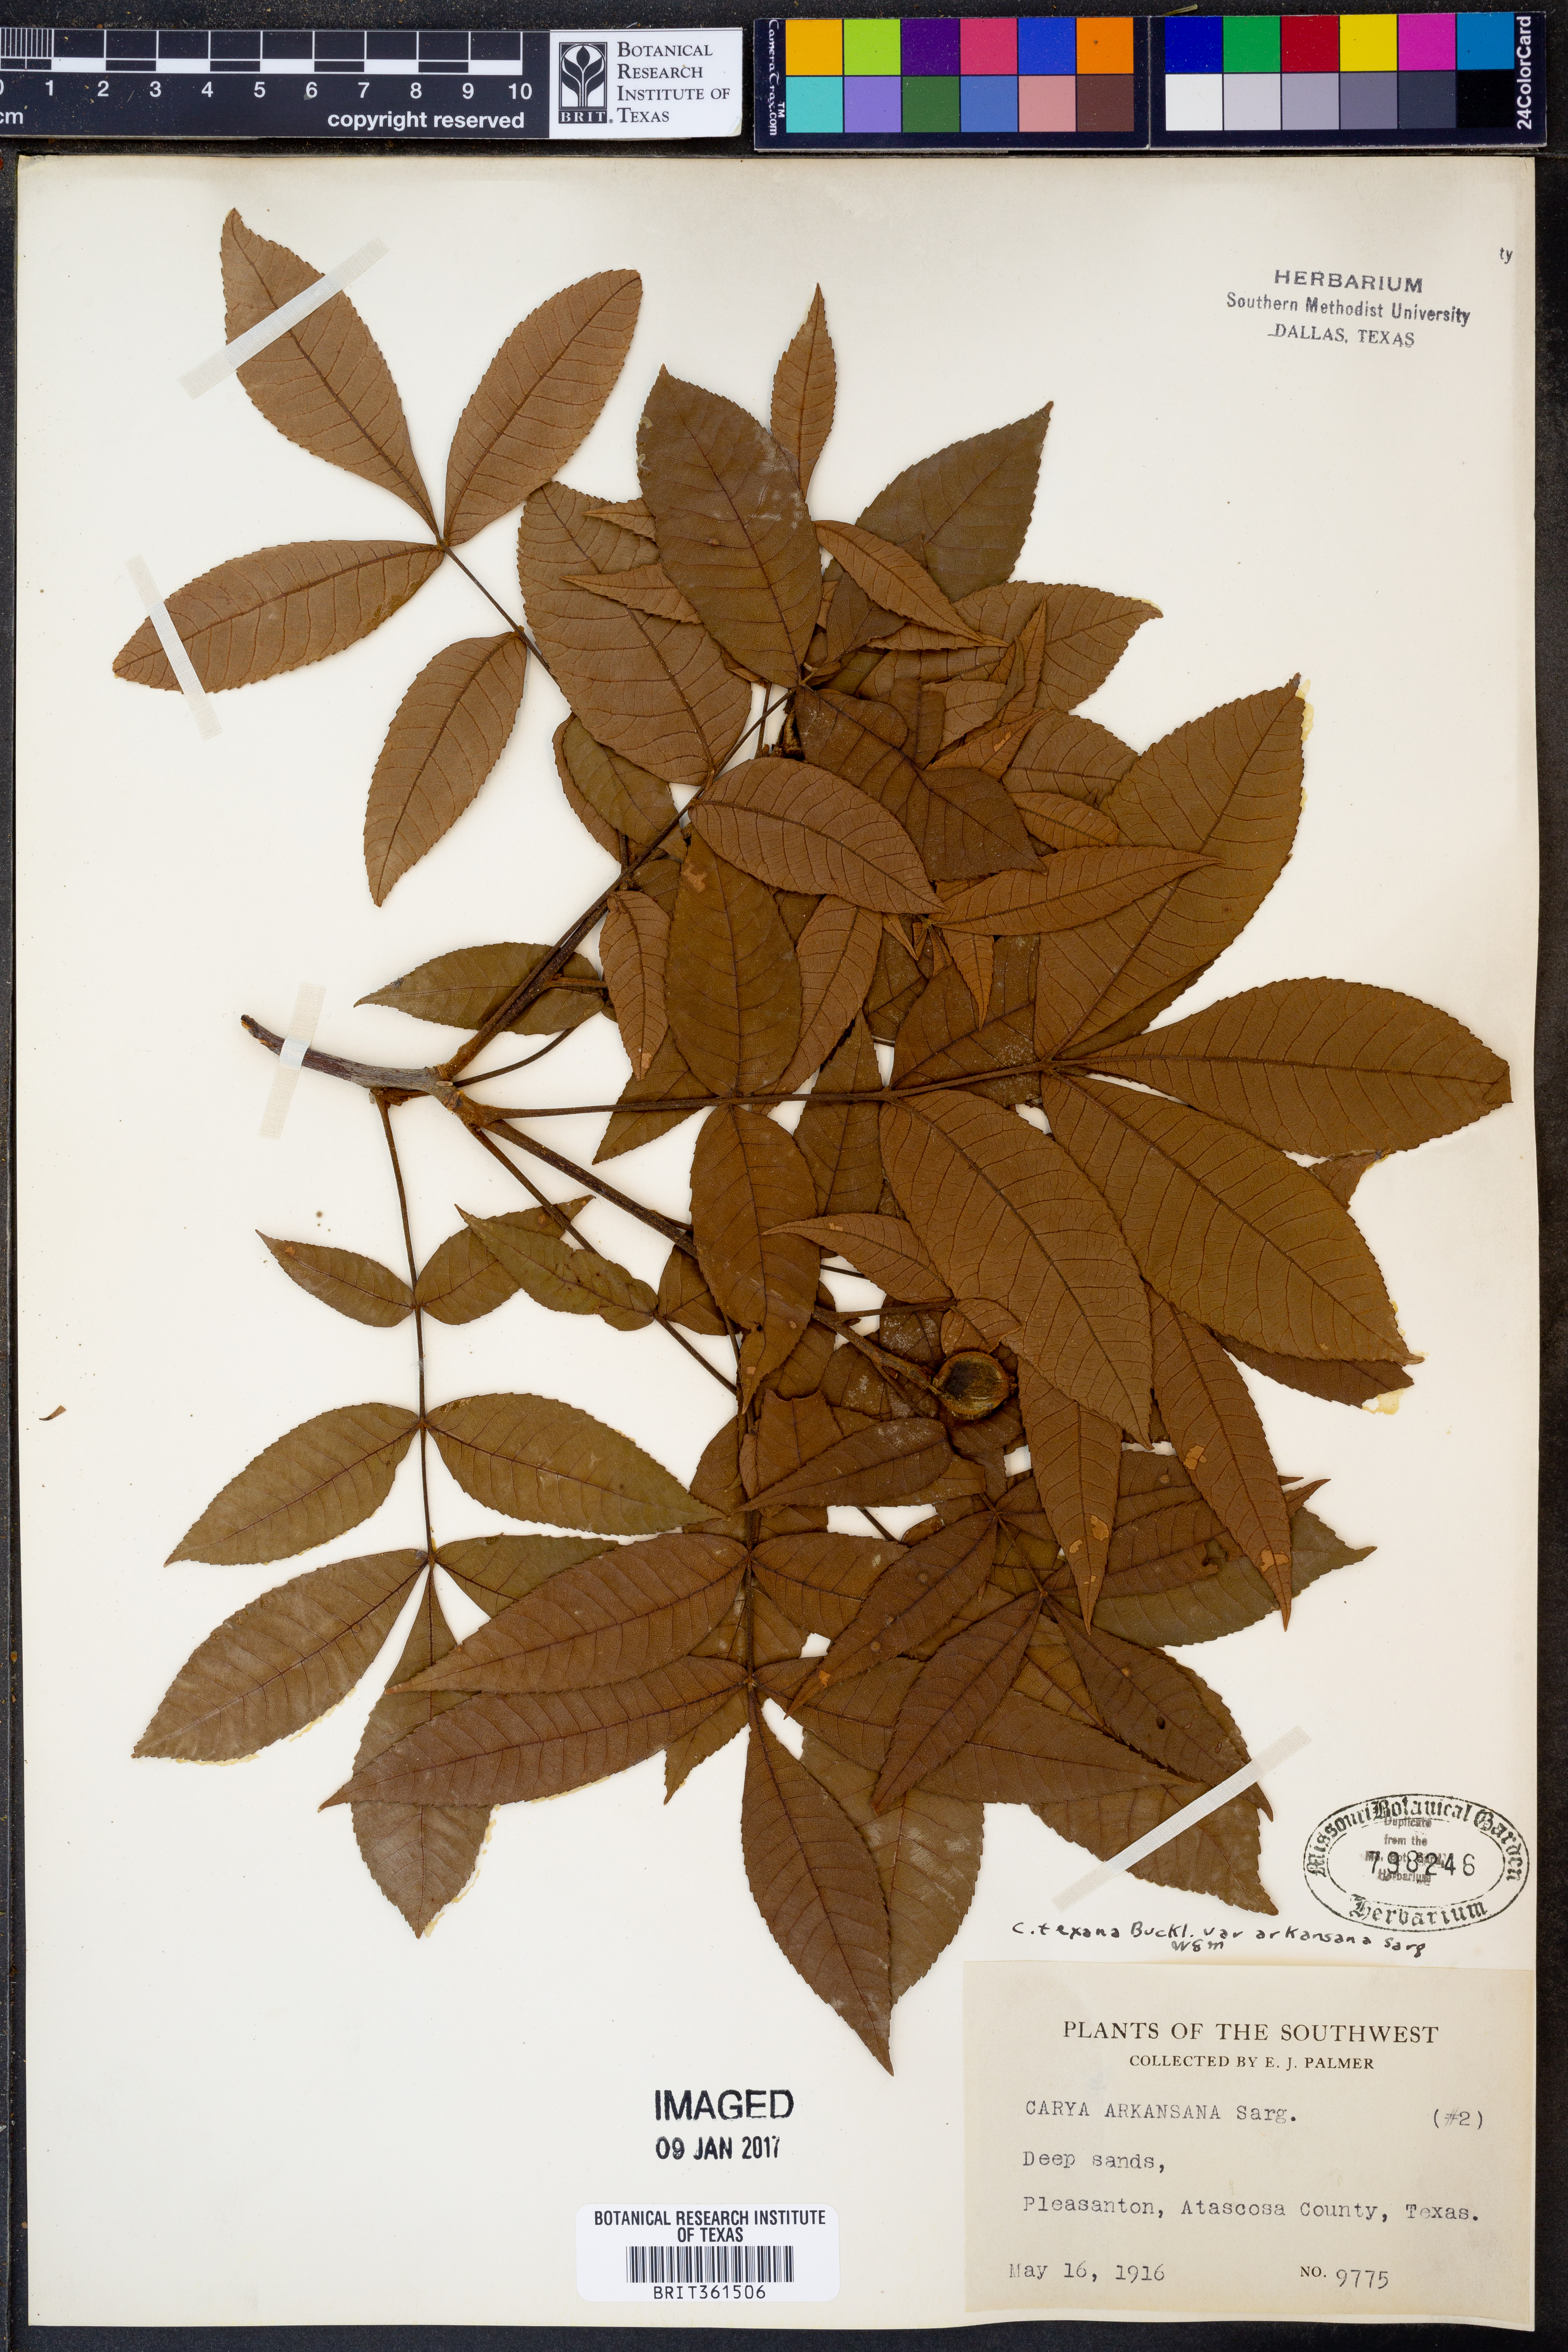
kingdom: Plantae
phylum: Tracheophyta
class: Magnoliopsida
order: Fagales
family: Juglandaceae
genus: Carya
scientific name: Carya texana
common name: Black hickory
